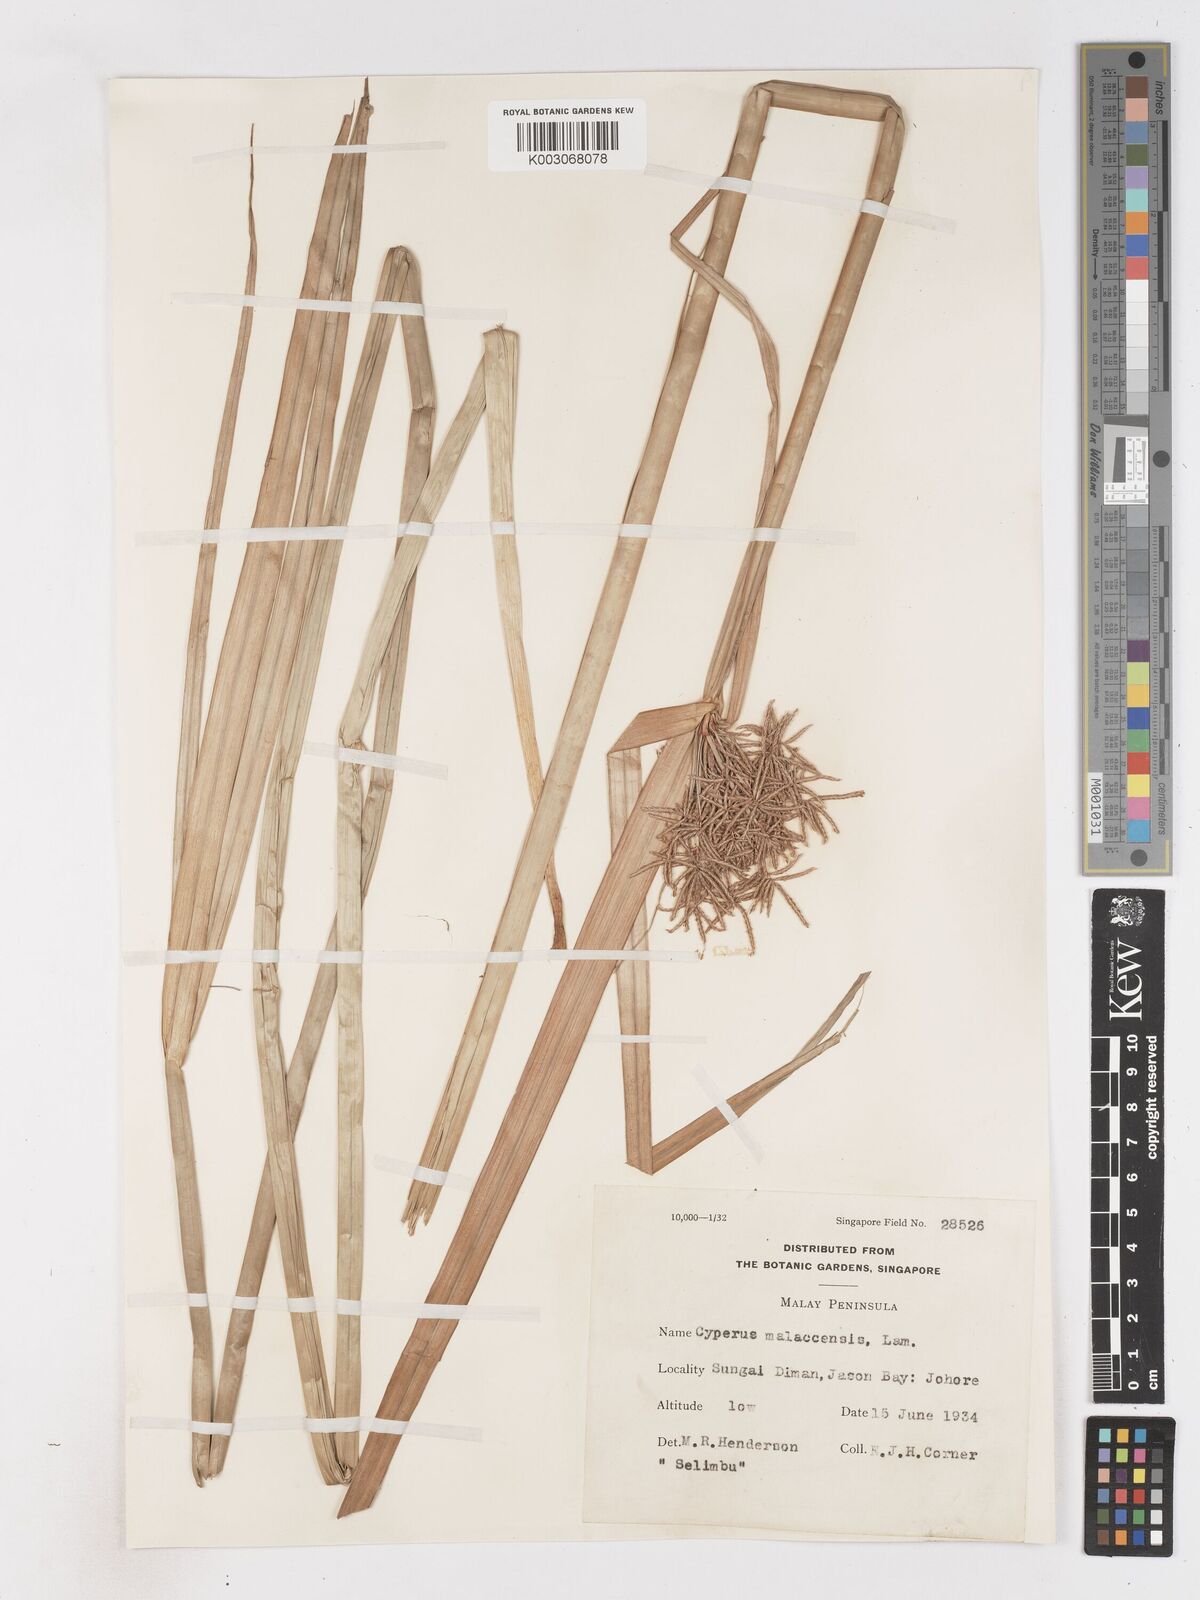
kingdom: Plantae
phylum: Tracheophyta
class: Liliopsida
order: Poales
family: Cyperaceae
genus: Cyperus
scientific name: Cyperus malaccensis
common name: Shichito matgrass
